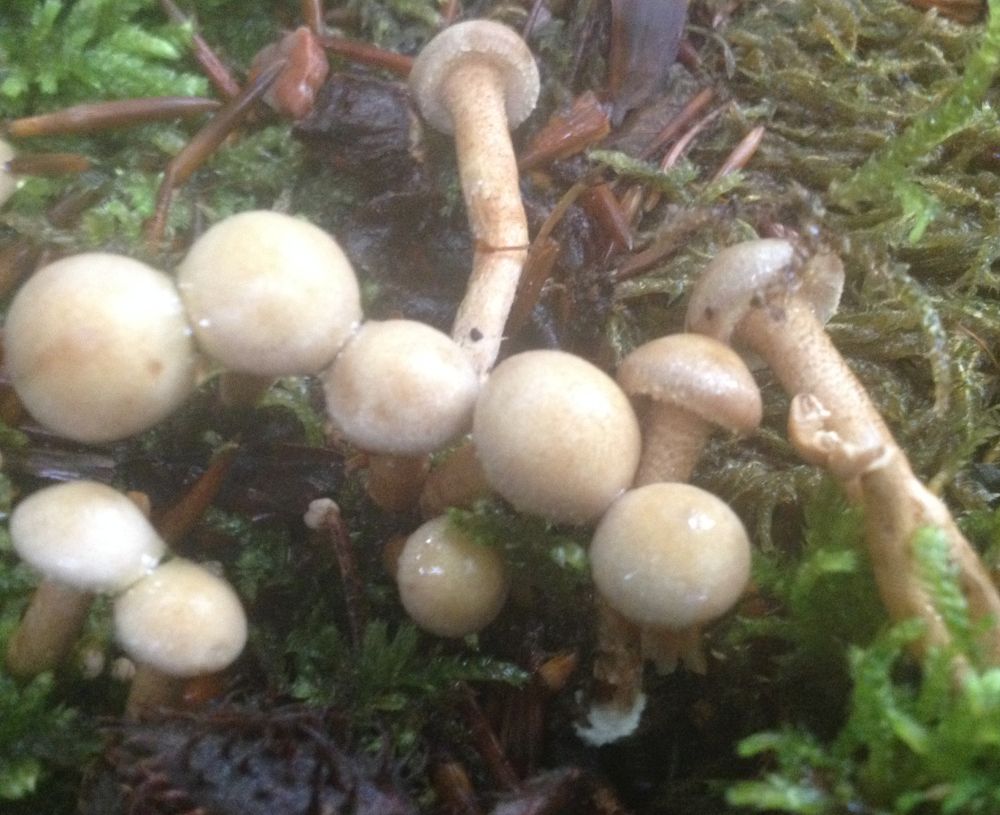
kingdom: Fungi
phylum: Basidiomycota
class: Agaricomycetes
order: Agaricales
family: Strophariaceae
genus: Kuehneromyces
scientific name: Kuehneromyces mutabilis
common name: foranderlig skælhat
